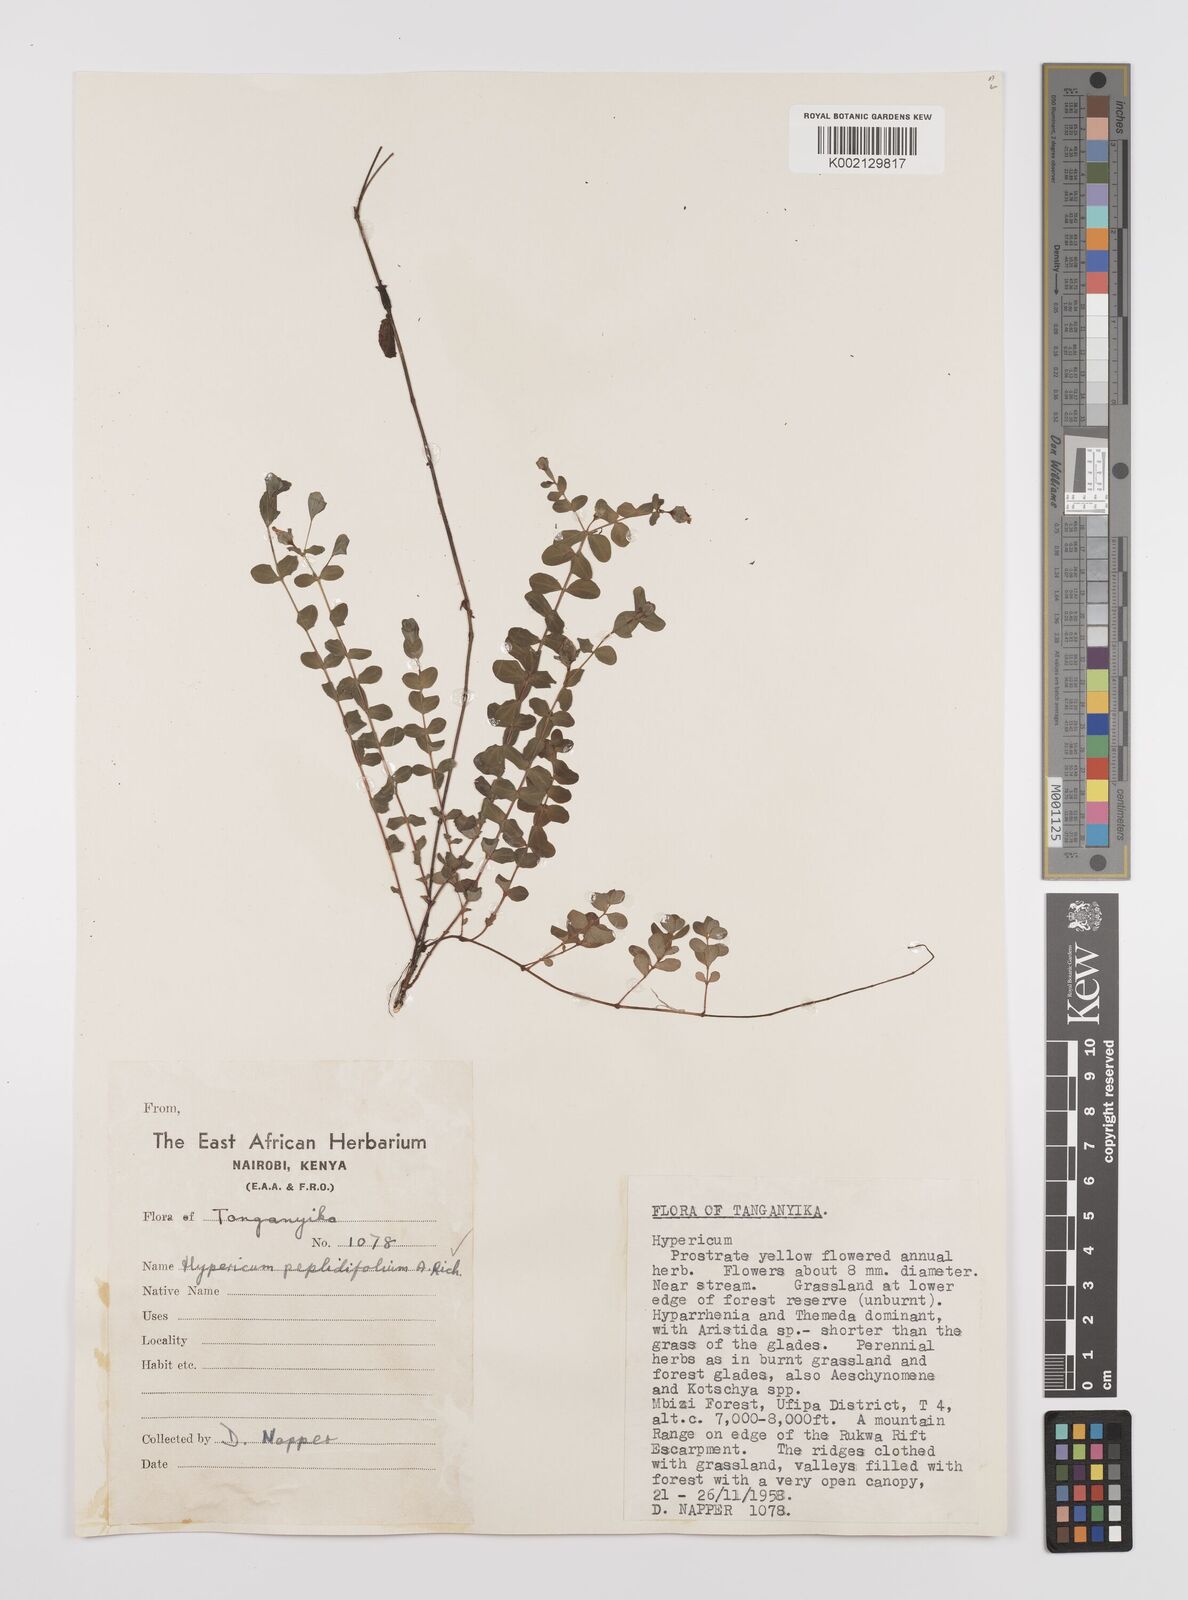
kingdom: Plantae
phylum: Tracheophyta
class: Magnoliopsida
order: Malpighiales
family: Hypericaceae
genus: Hypericum
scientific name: Hypericum peplidifolium
